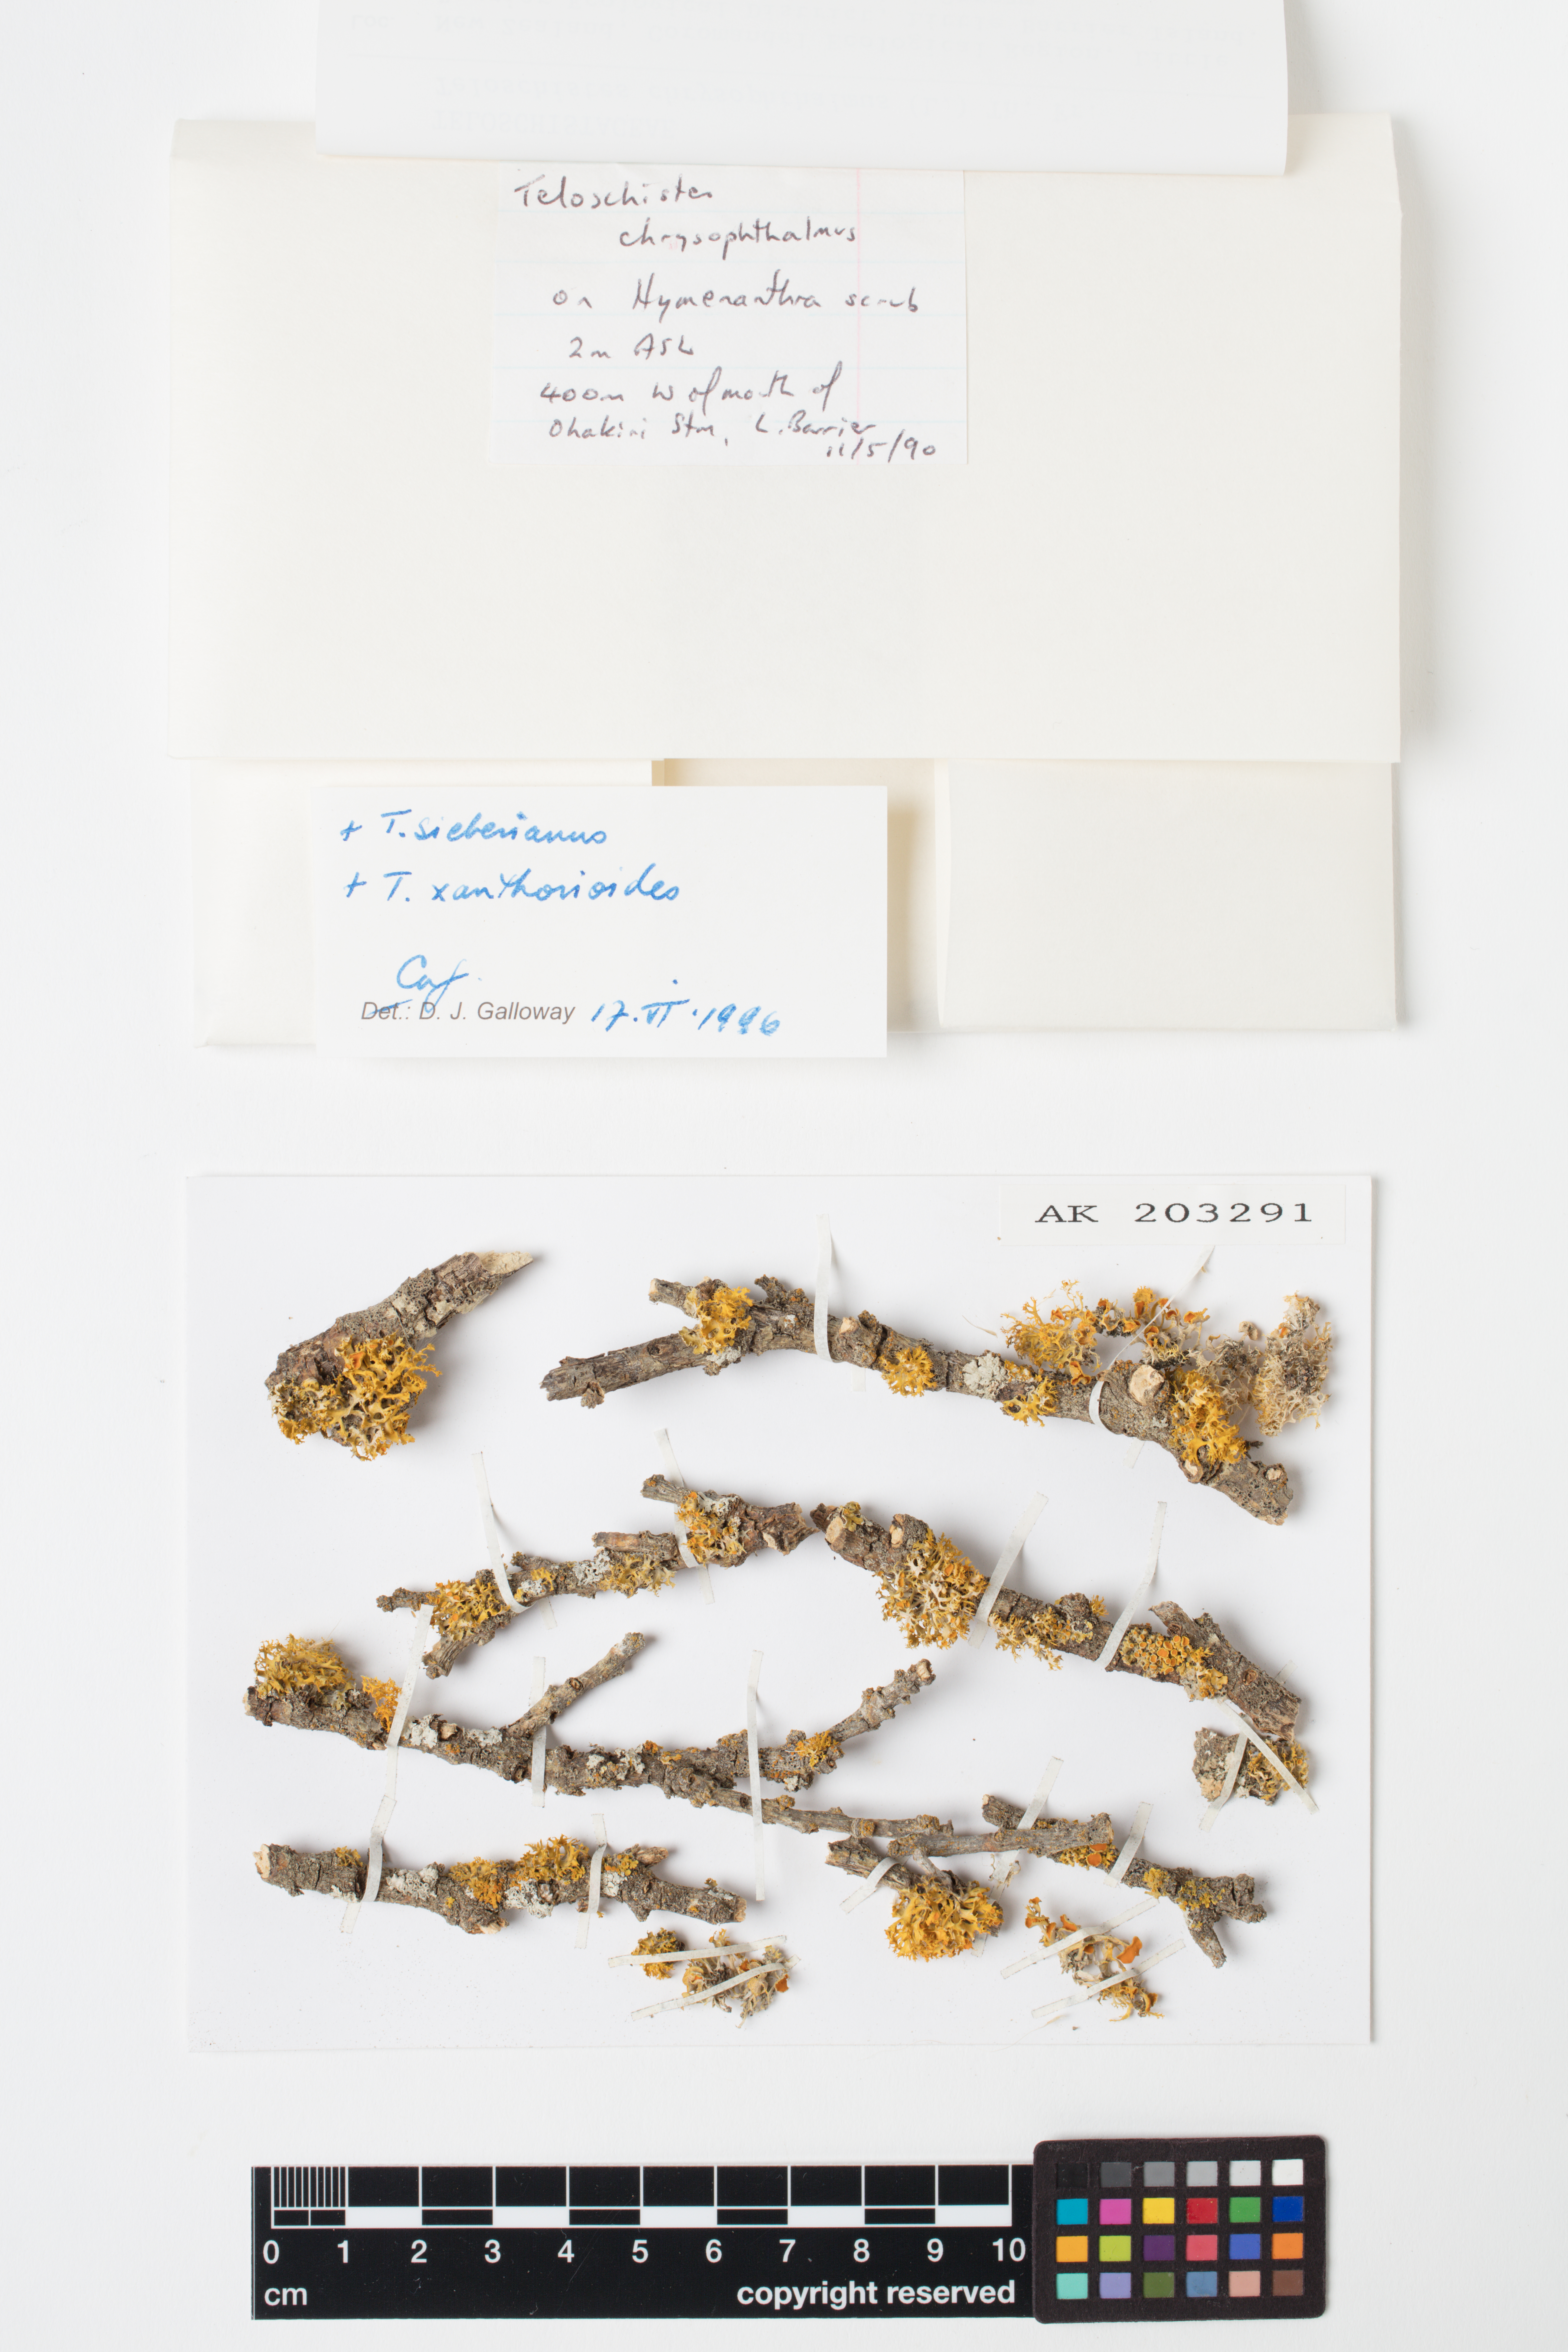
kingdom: Fungi
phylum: Ascomycota
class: Lecanoromycetes
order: Teloschistales
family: Teloschistaceae
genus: Niorma
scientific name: Niorma chrysophthalma
